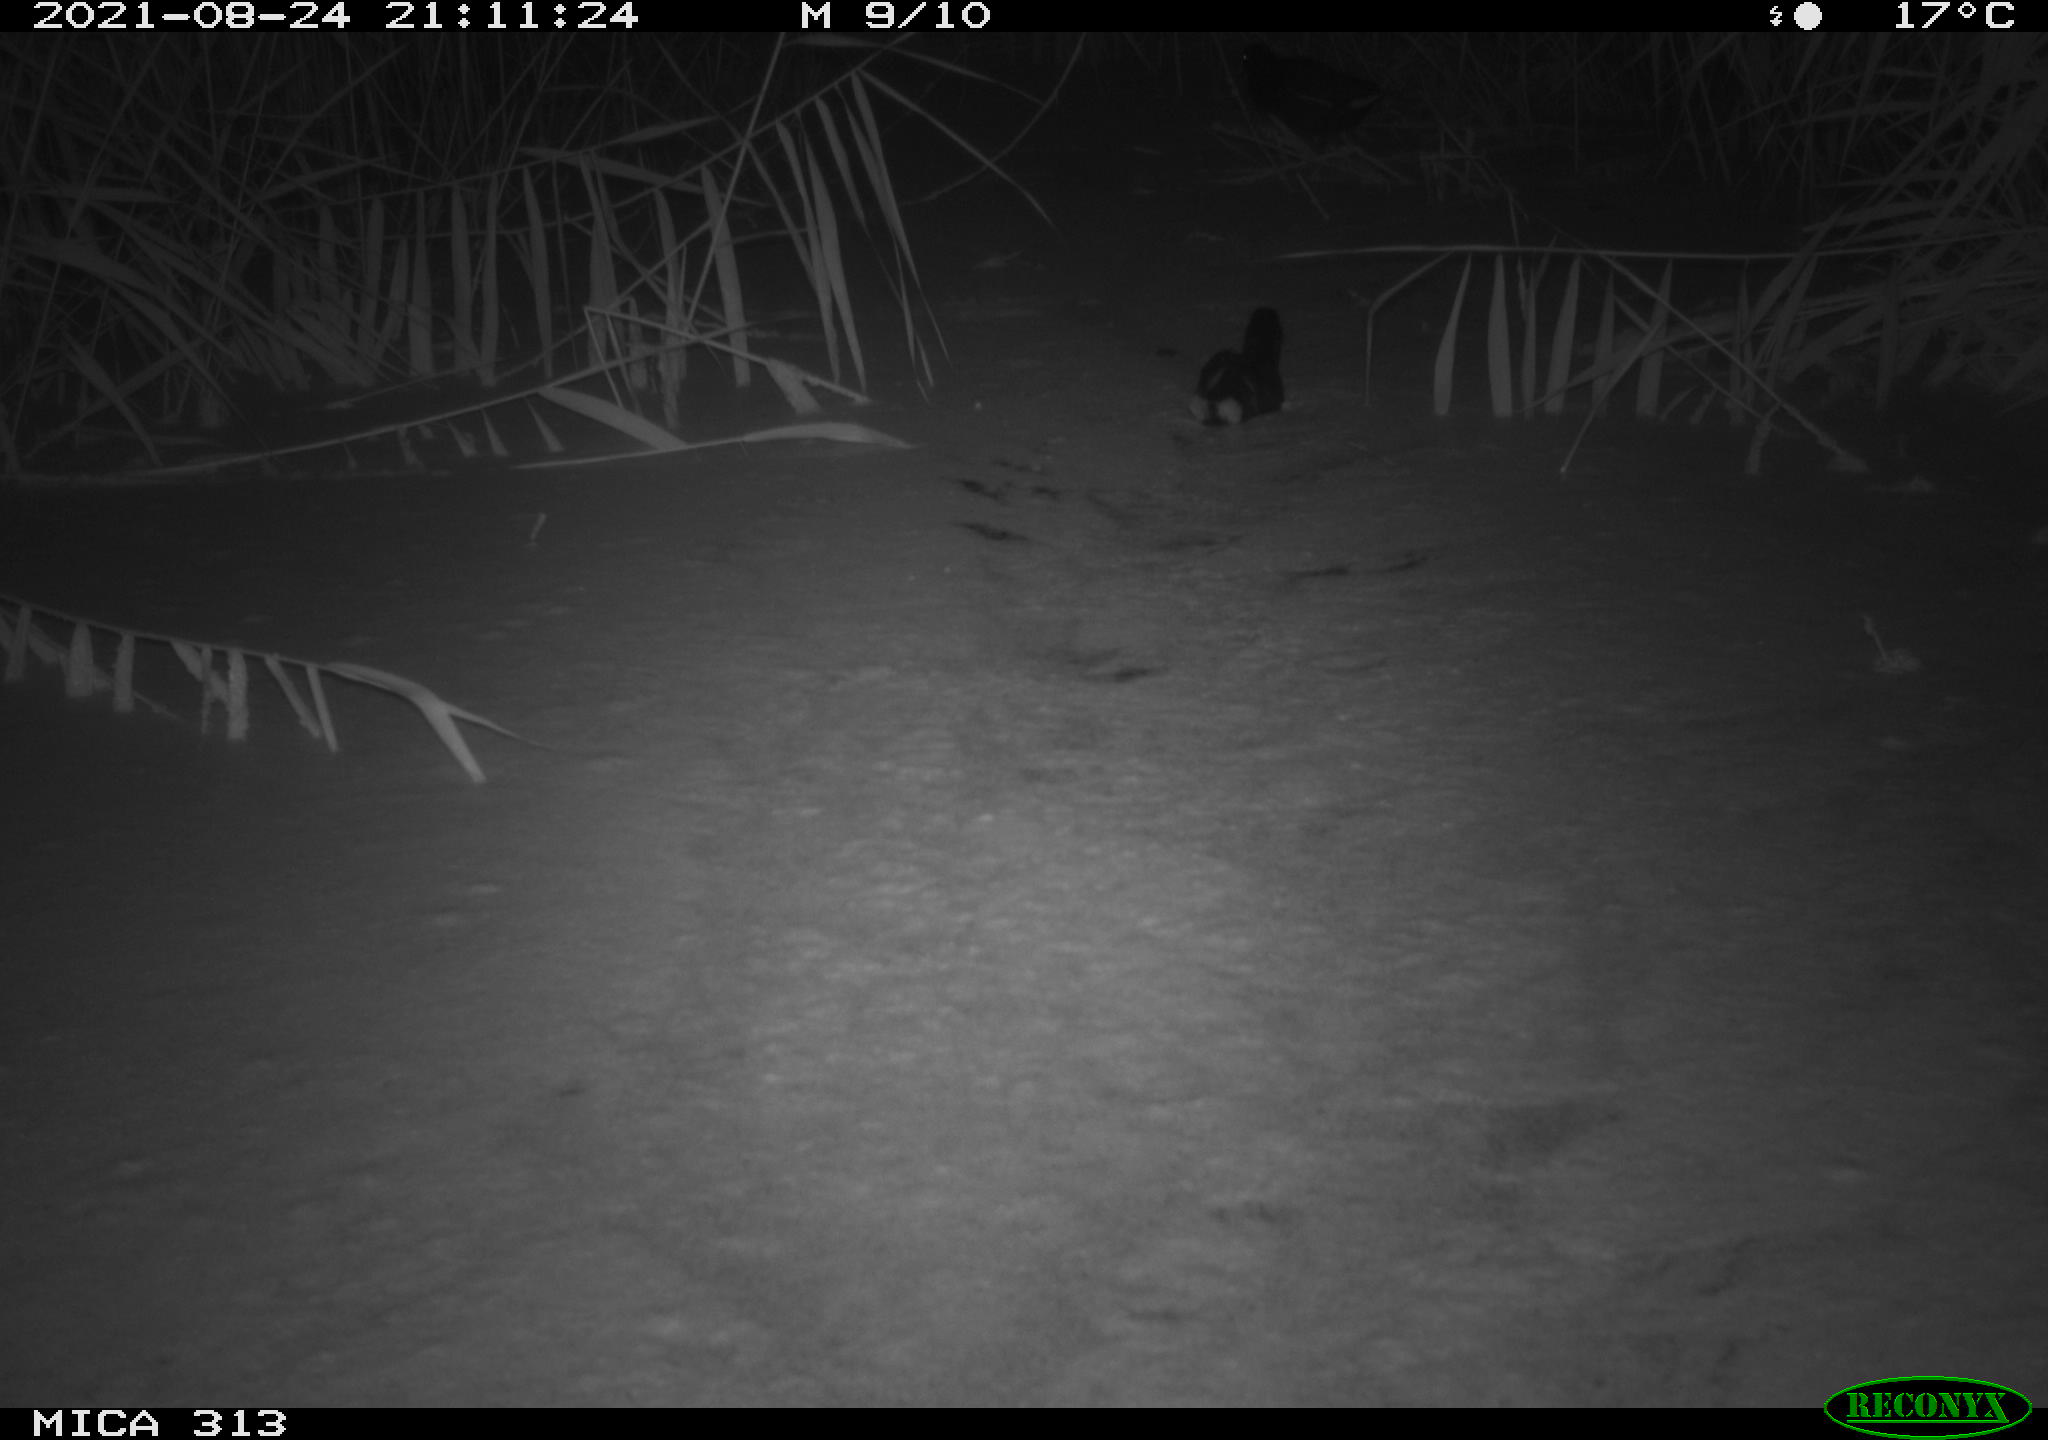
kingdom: Animalia
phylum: Chordata
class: Aves
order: Gruiformes
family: Rallidae
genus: Fulica
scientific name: Fulica atra
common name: Eurasian coot
